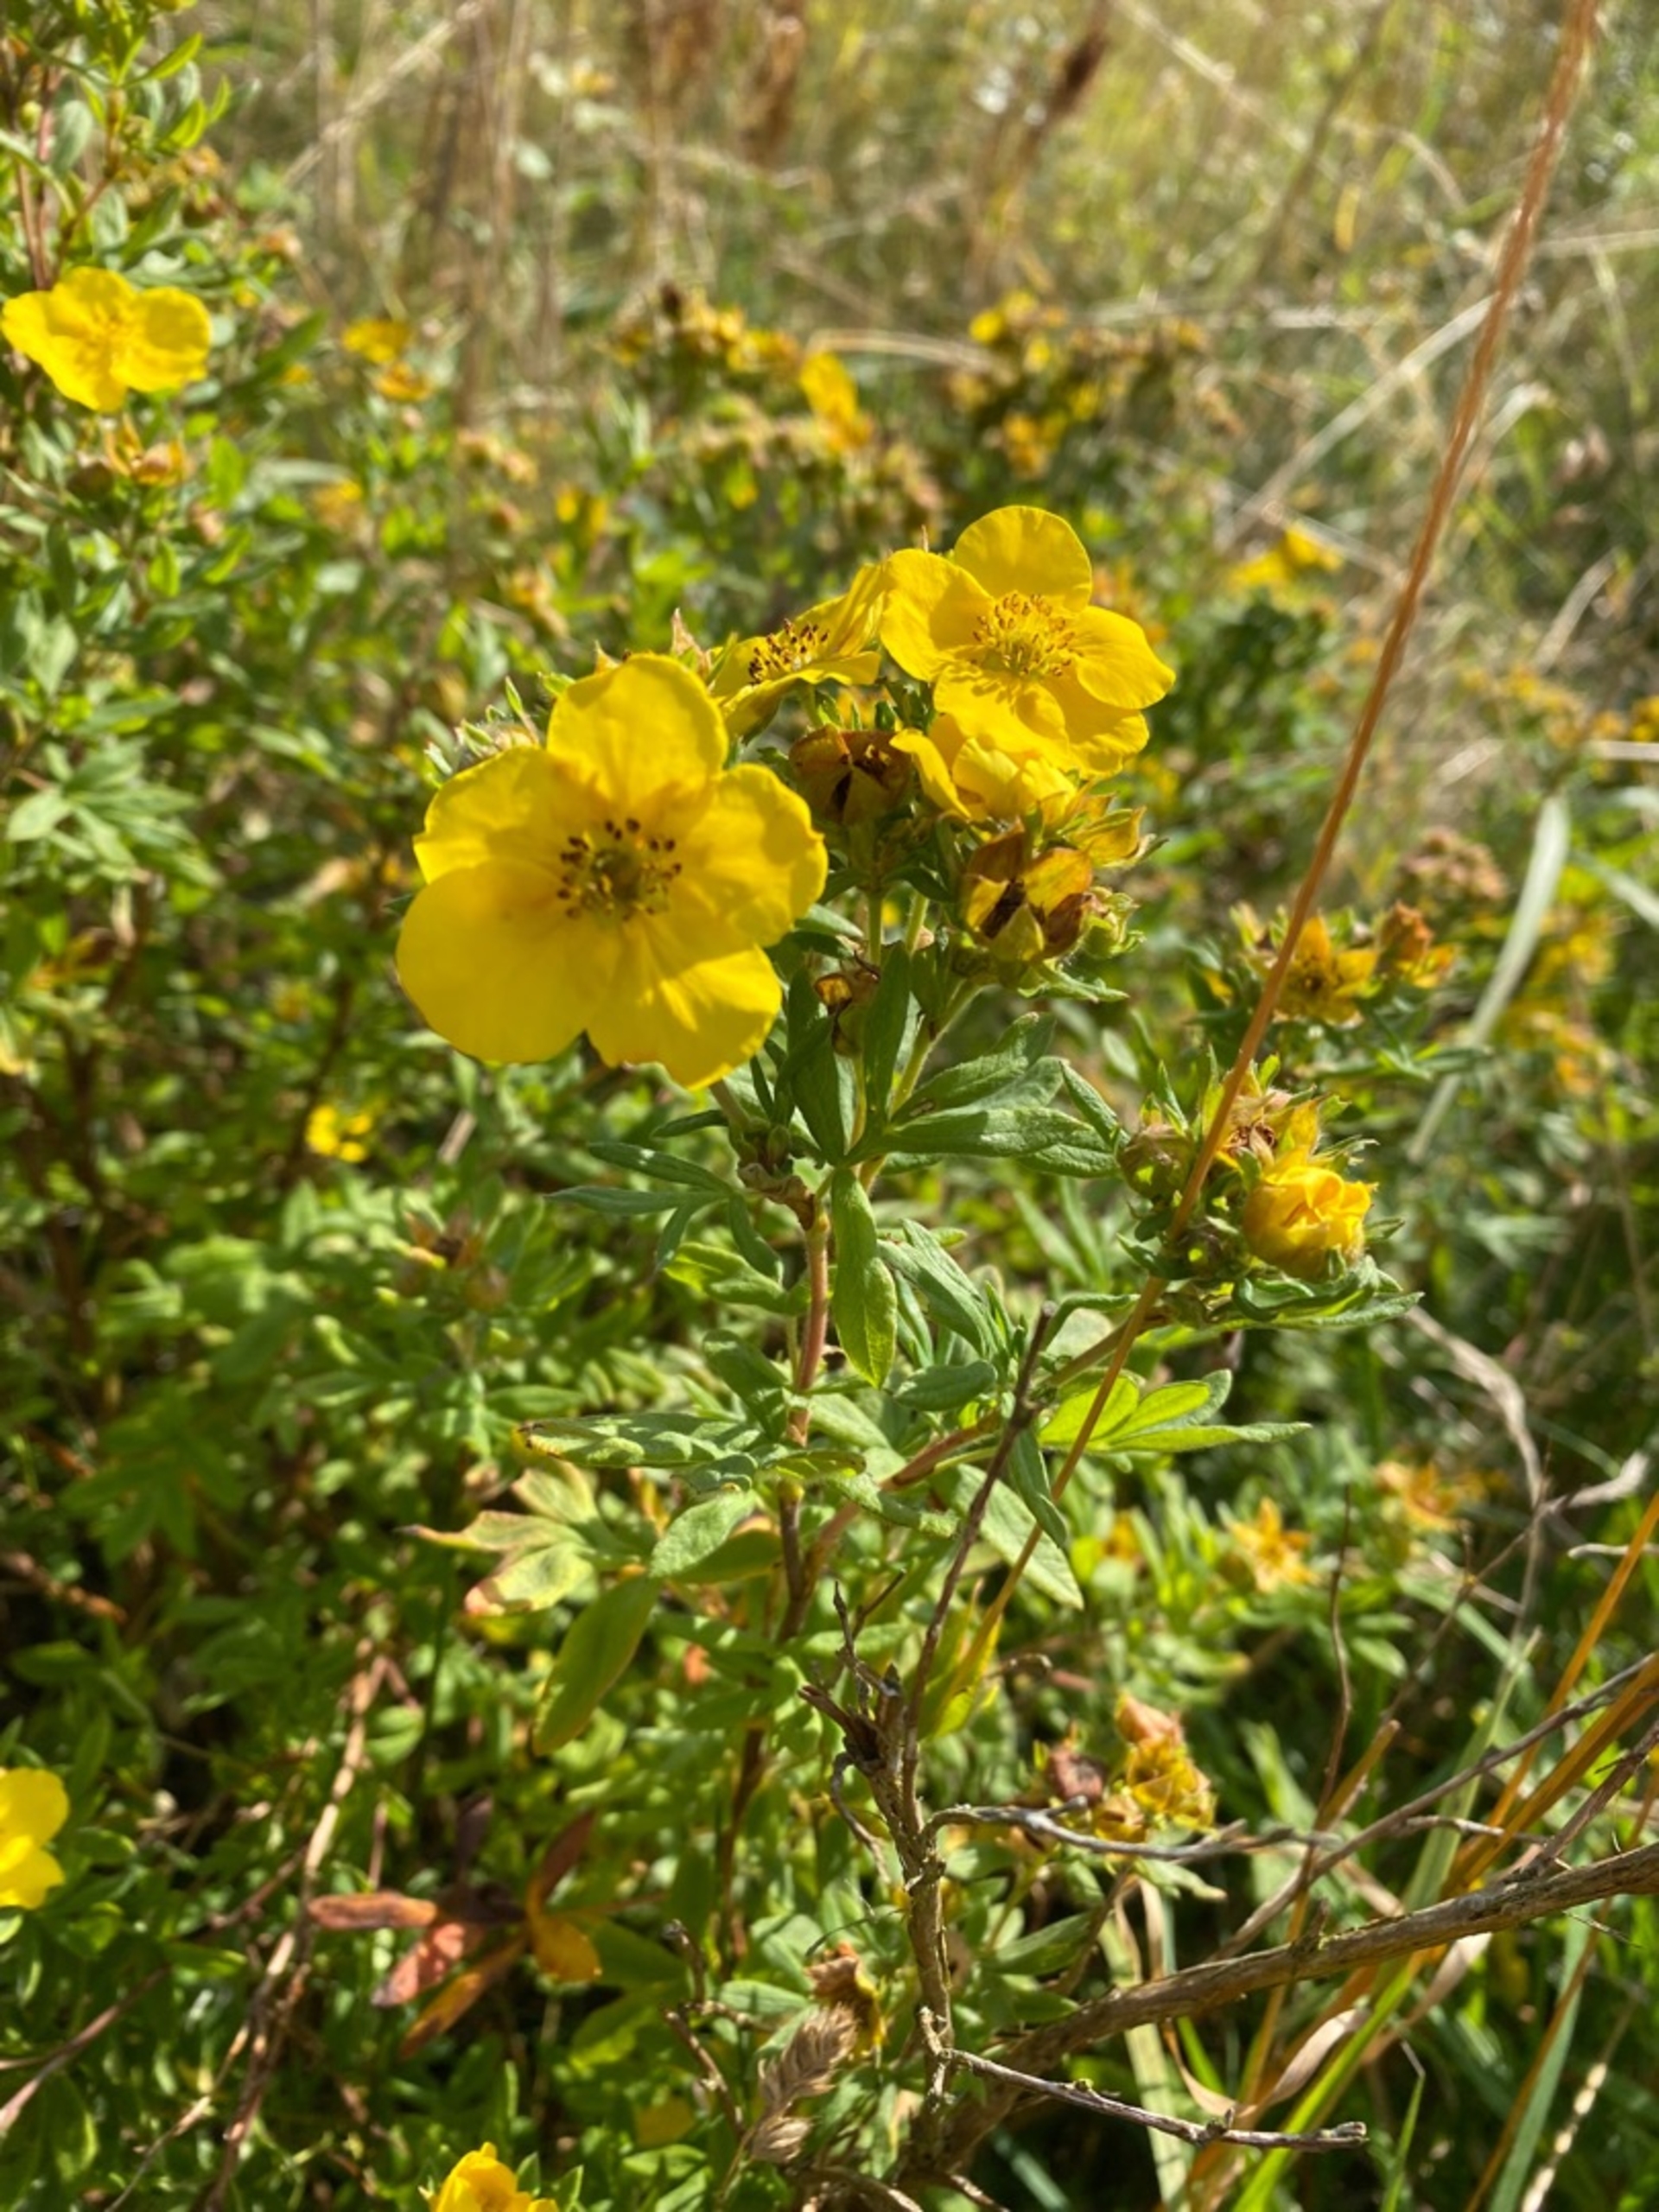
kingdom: Plantae
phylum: Tracheophyta
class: Magnoliopsida
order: Rosales
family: Rosaceae
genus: Dasiphora
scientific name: Dasiphora fruticosa
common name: Buskpotentil
